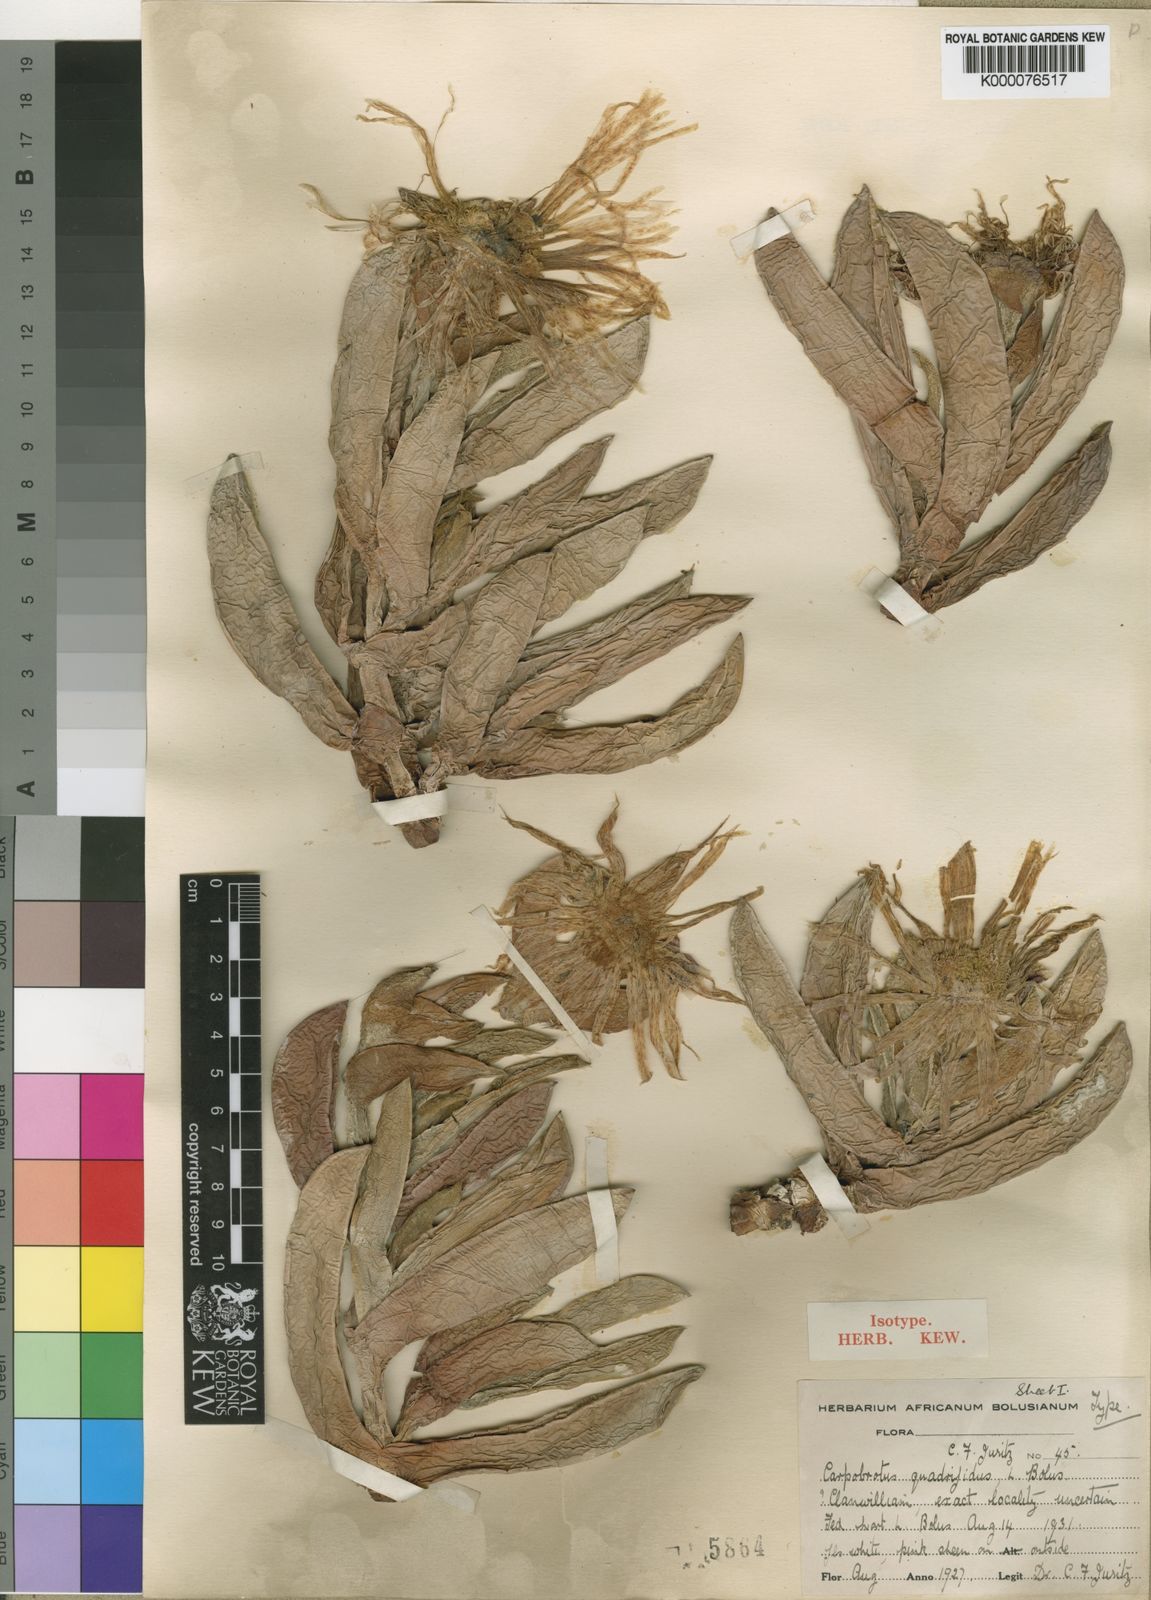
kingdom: Plantae
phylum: Tracheophyta
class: Magnoliopsida
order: Caryophyllales
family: Aizoaceae
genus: Carpobrotus
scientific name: Carpobrotus quadrifidus
